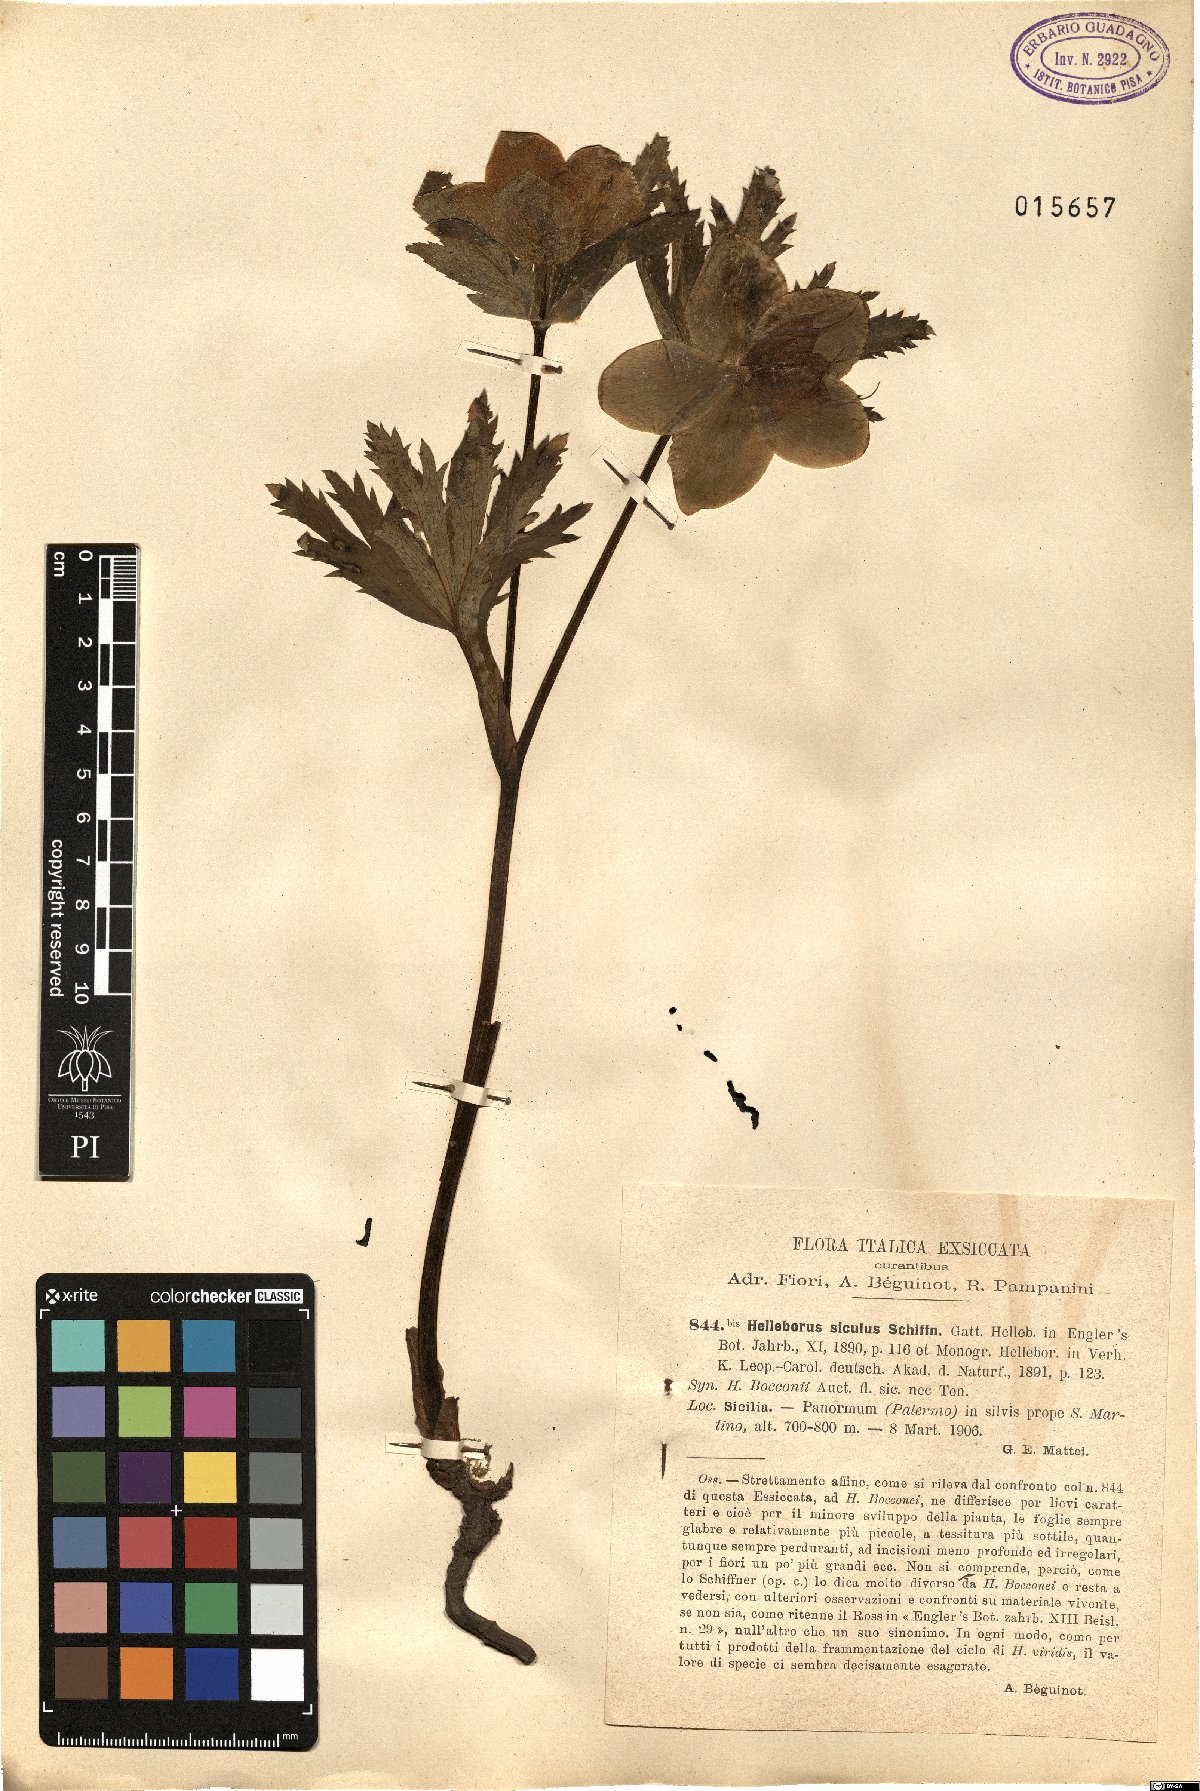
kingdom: Plantae
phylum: Tracheophyta
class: Magnoliopsida
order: Ranunculales
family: Ranunculaceae
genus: Helleborus
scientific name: Helleborus bocconei
